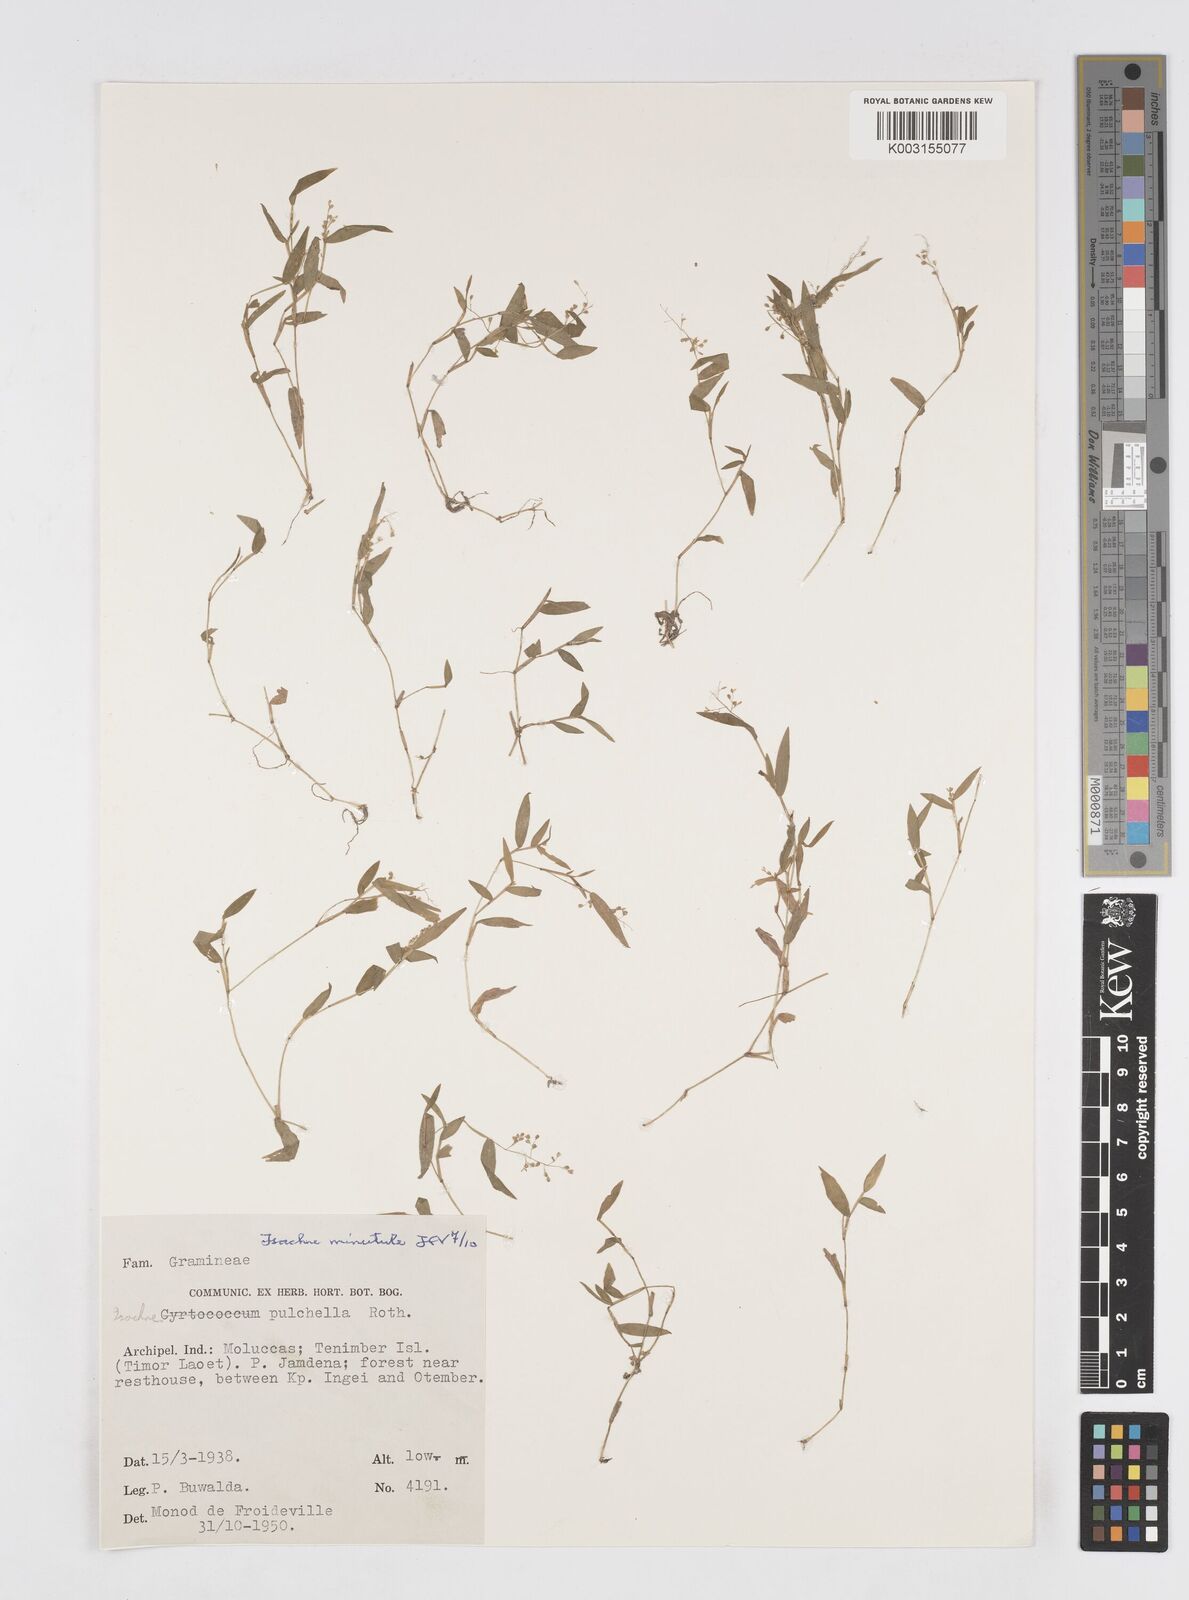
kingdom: Plantae
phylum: Tracheophyta
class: Liliopsida
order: Poales
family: Poaceae
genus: Isachne
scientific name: Isachne pulchella
